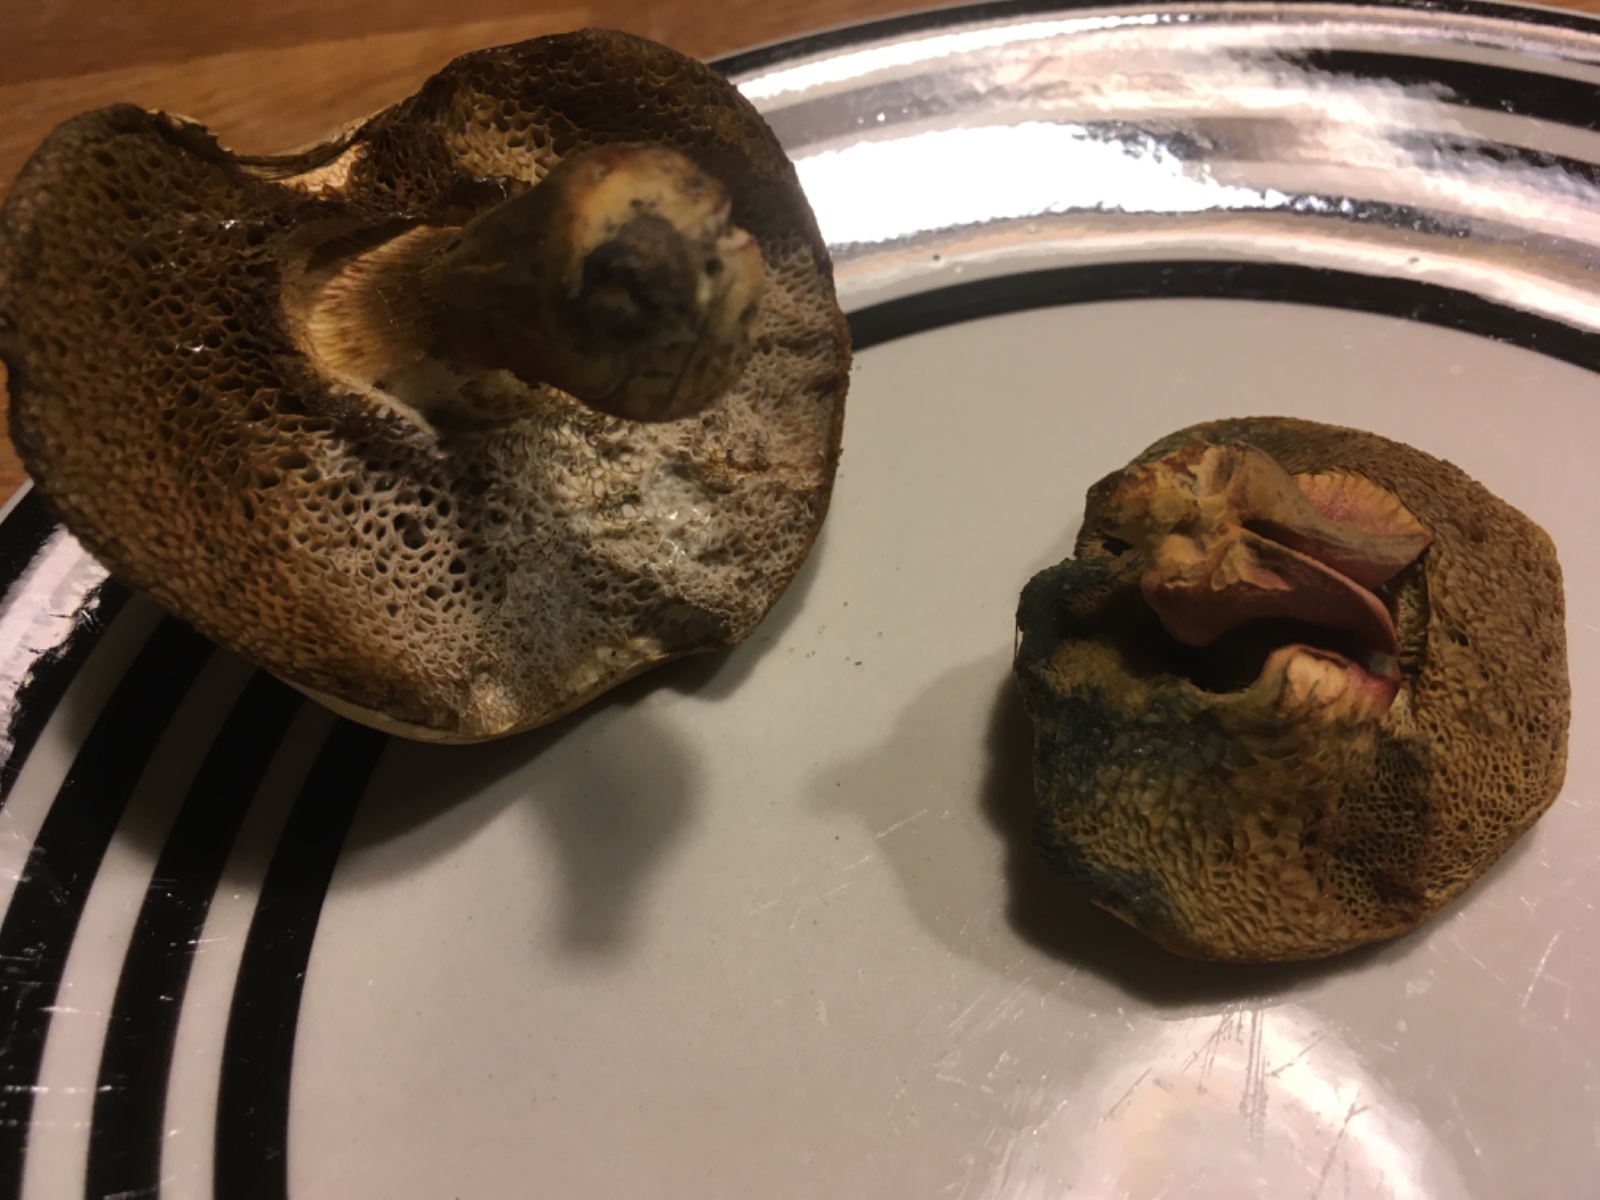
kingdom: Fungi
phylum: Basidiomycota
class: Agaricomycetes
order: Boletales
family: Boletaceae
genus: Hortiboletus
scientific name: Hortiboletus bubalinus
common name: aurora-rørhat
